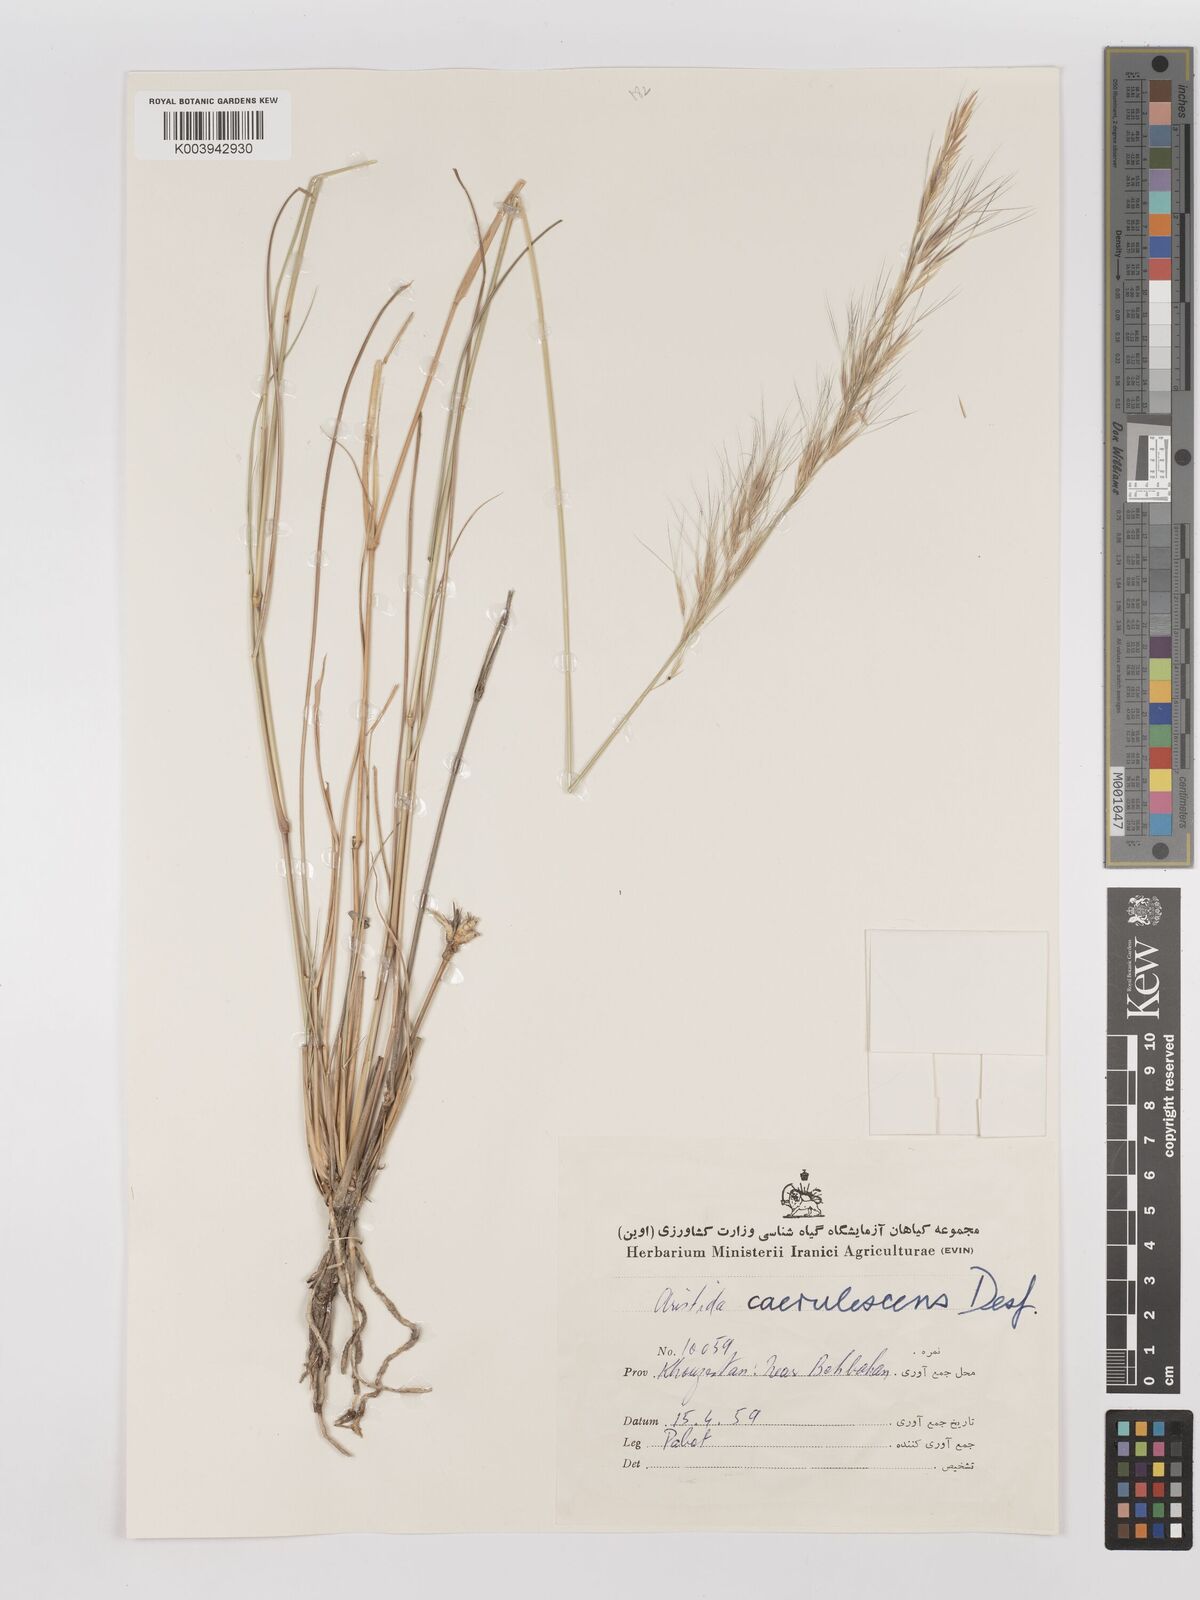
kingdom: Plantae
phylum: Tracheophyta
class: Liliopsida
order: Poales
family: Poaceae
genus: Aristida
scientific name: Aristida adscensionis
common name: Sixweeks threeawn
